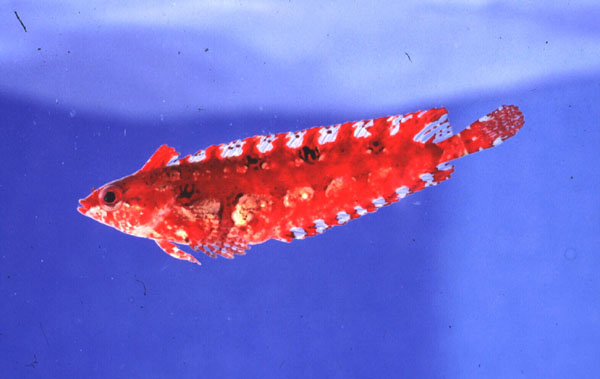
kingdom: Animalia
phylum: Chordata
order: Perciformes
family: Clinidae
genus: Pavoclinus
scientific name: Pavoclinus graminis
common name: Grass klipfish
